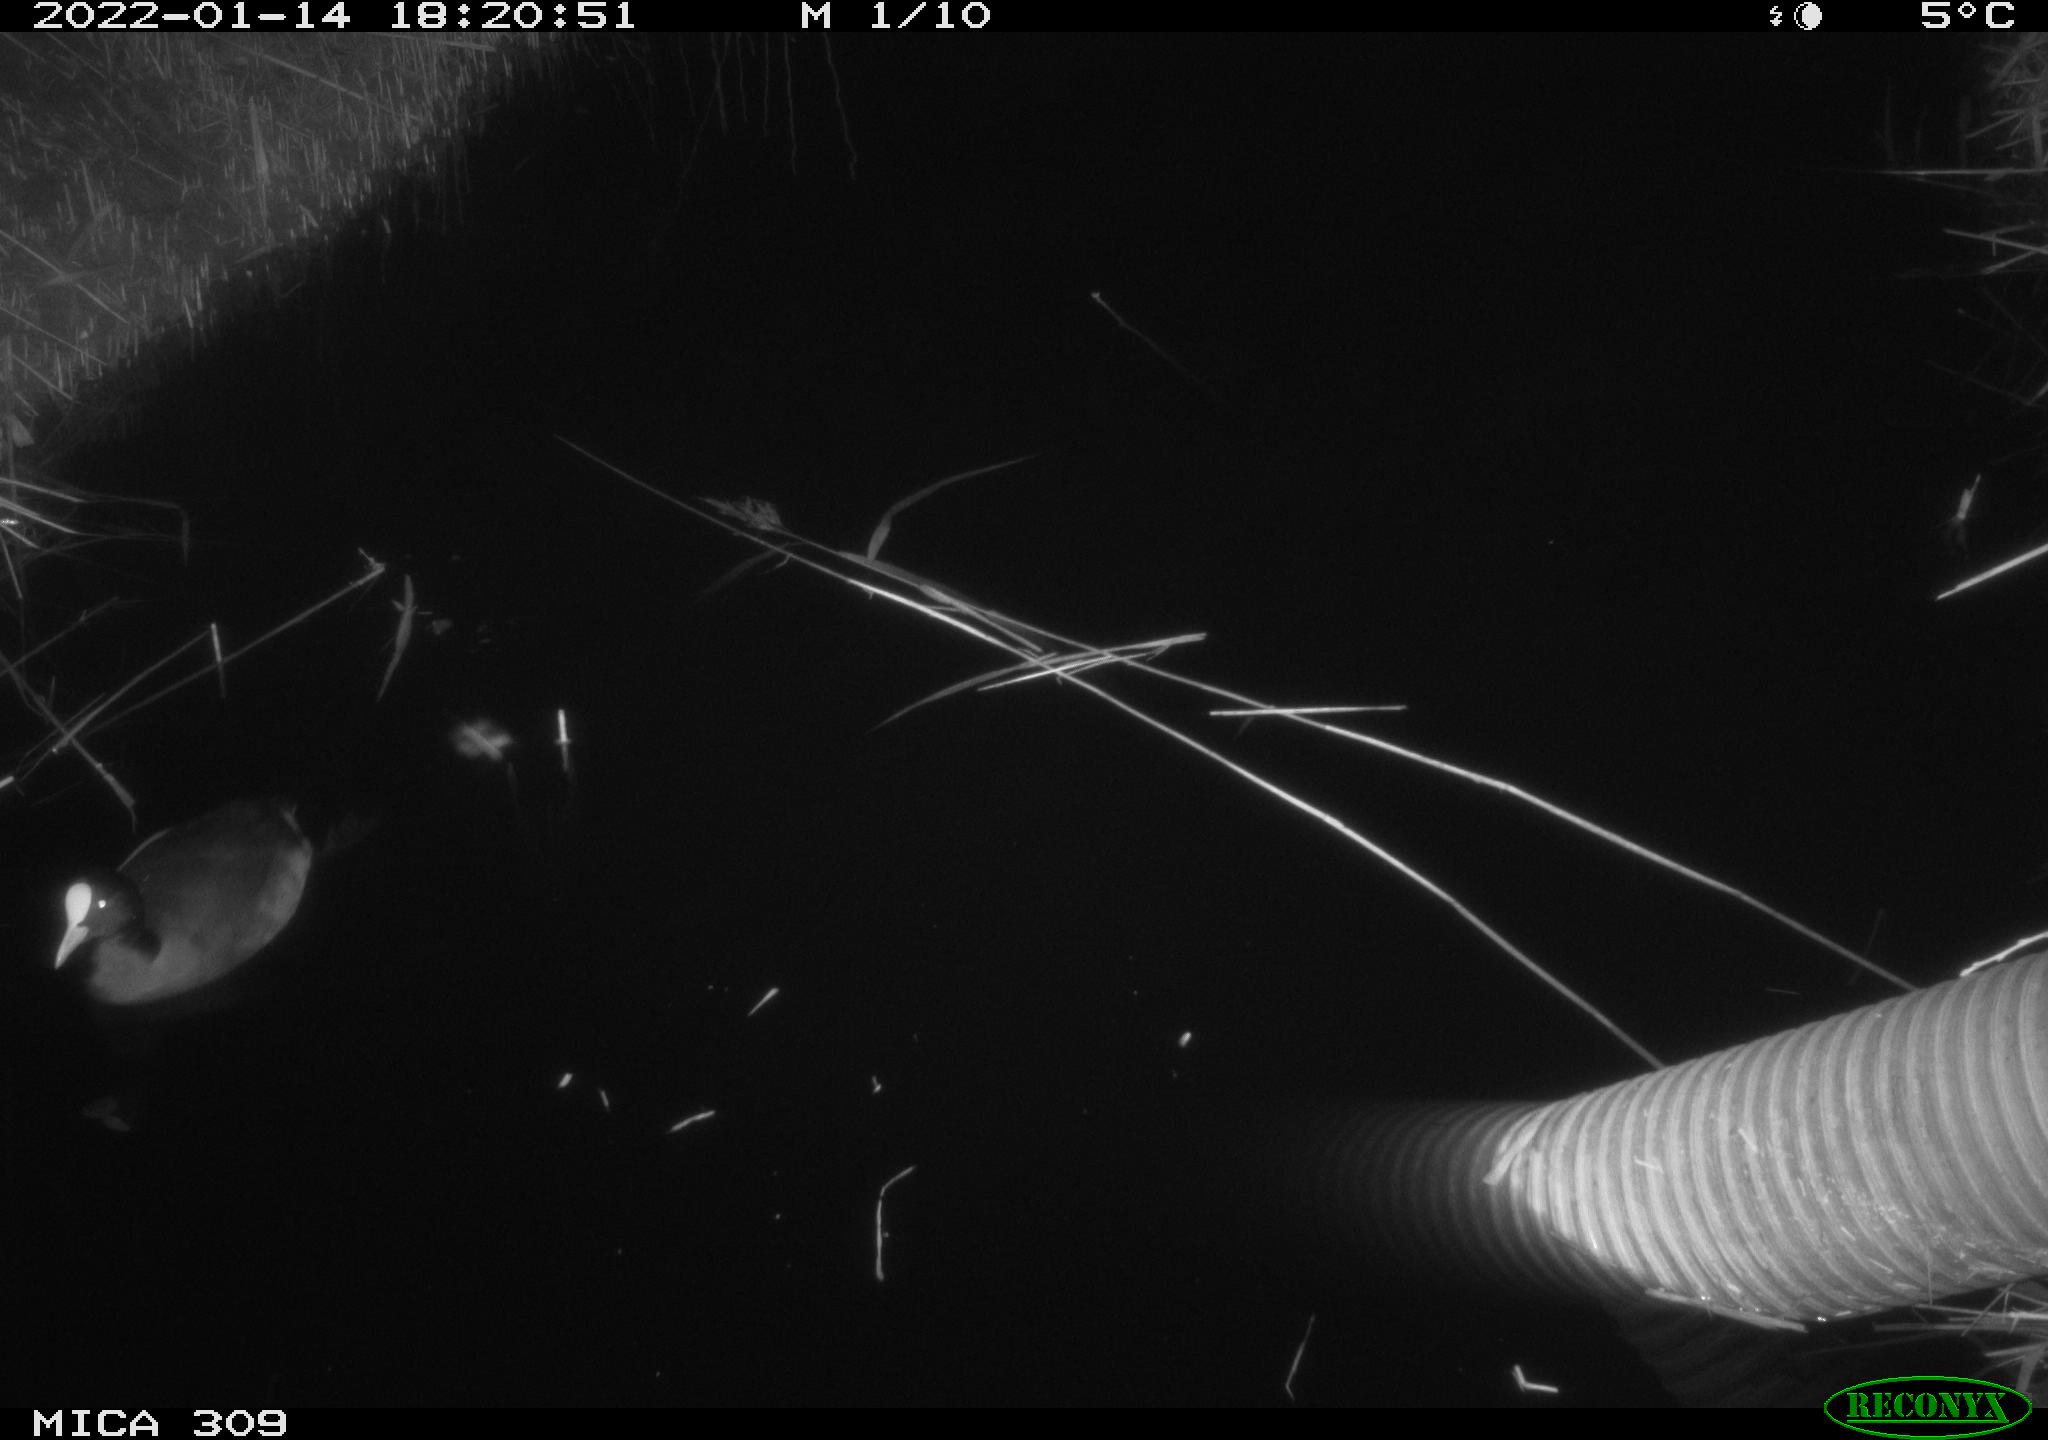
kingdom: Animalia
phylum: Chordata
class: Aves
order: Anseriformes
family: Anatidae
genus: Anas
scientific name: Anas
